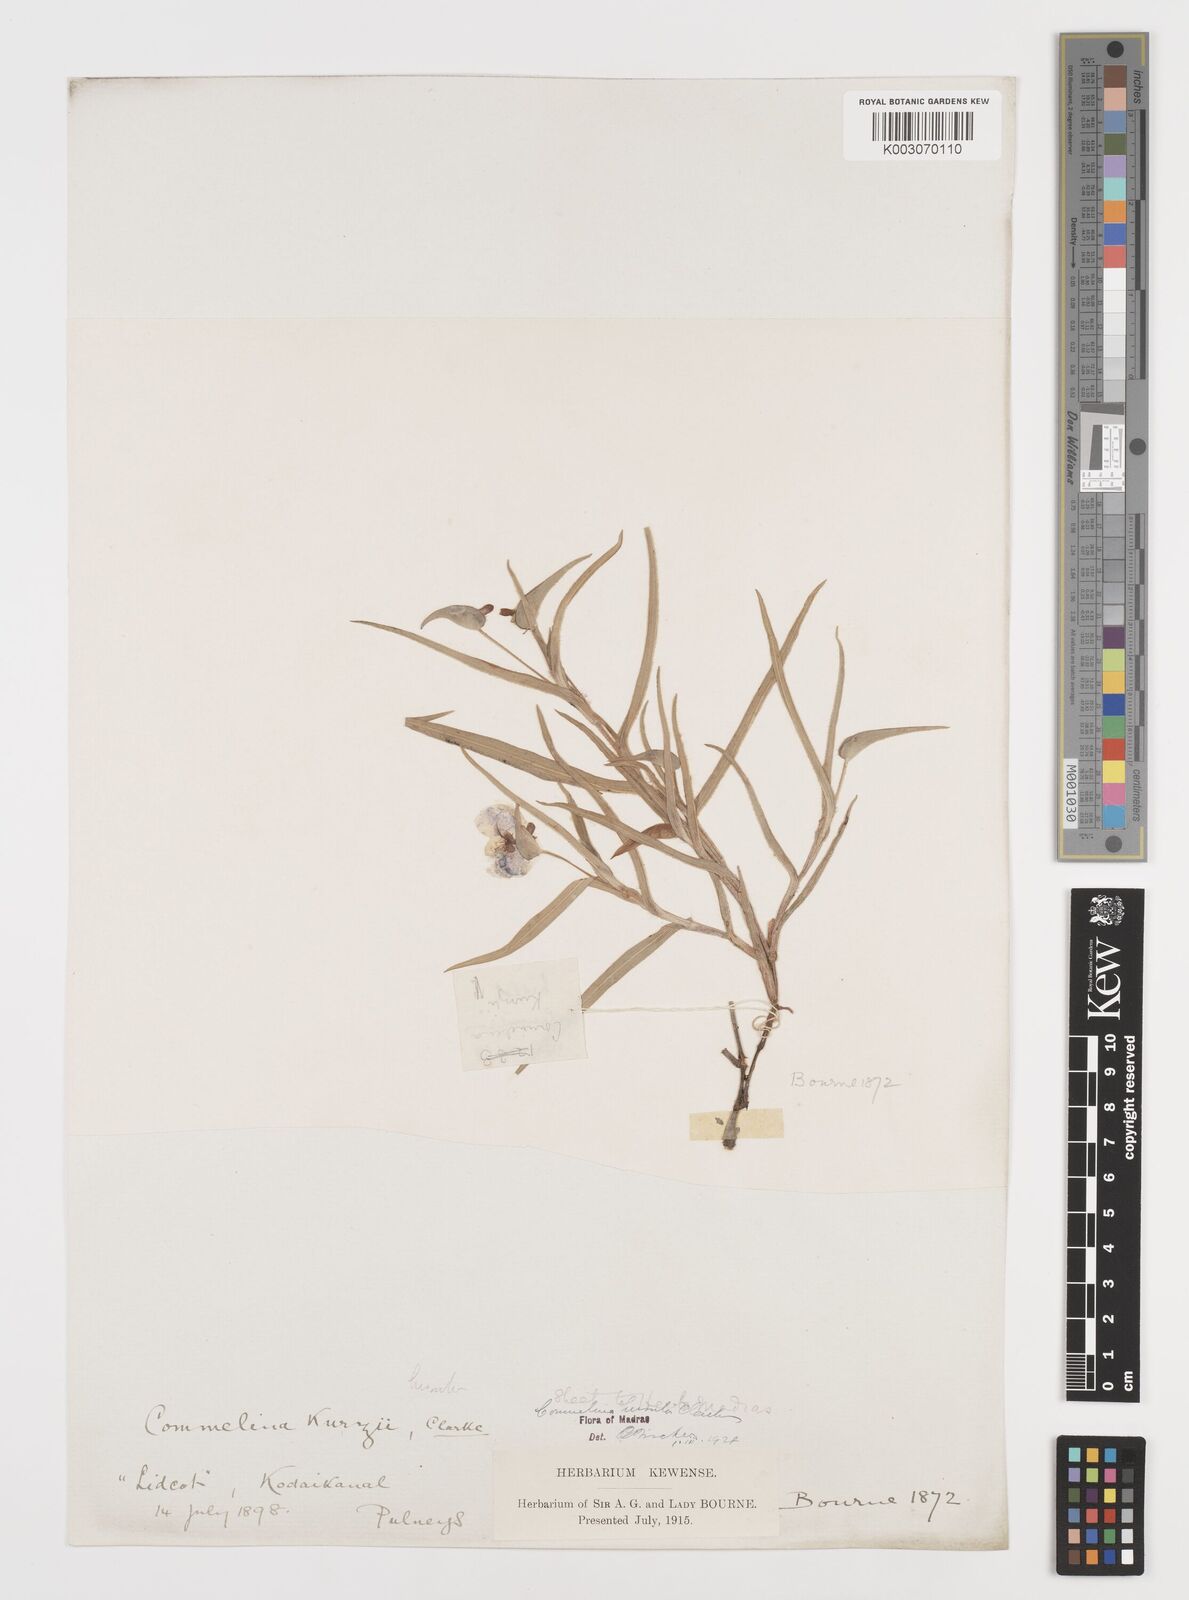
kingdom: Plantae
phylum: Tracheophyta
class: Liliopsida
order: Commelinales
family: Commelinaceae
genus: Commelina
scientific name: Commelina hirsuta
